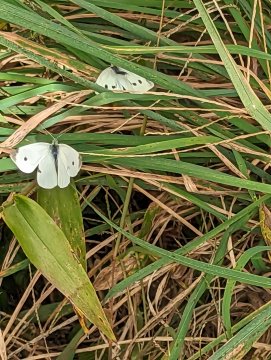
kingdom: Animalia
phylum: Arthropoda
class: Insecta
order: Lepidoptera
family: Pieridae
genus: Pieris
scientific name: Pieris rapae
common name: Cabbage White
